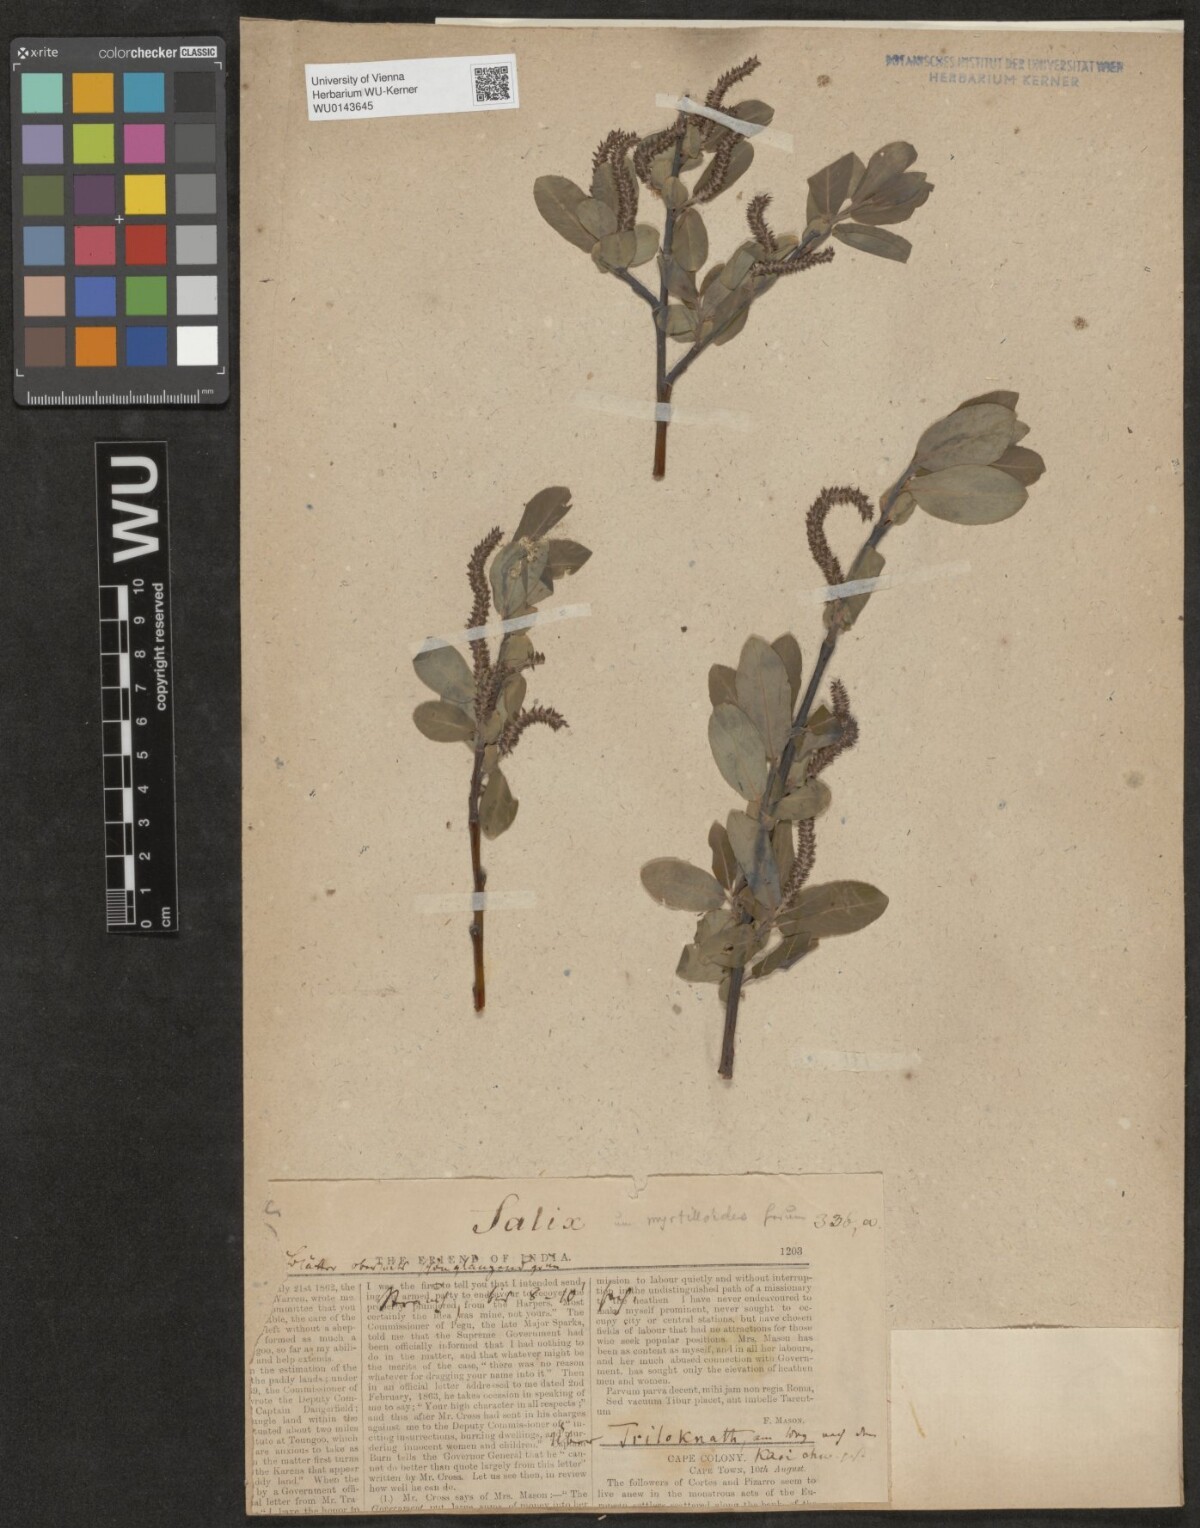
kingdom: Plantae
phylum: Tracheophyta
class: Magnoliopsida
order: Malpighiales
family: Salicaceae
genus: Salix
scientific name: Salix
